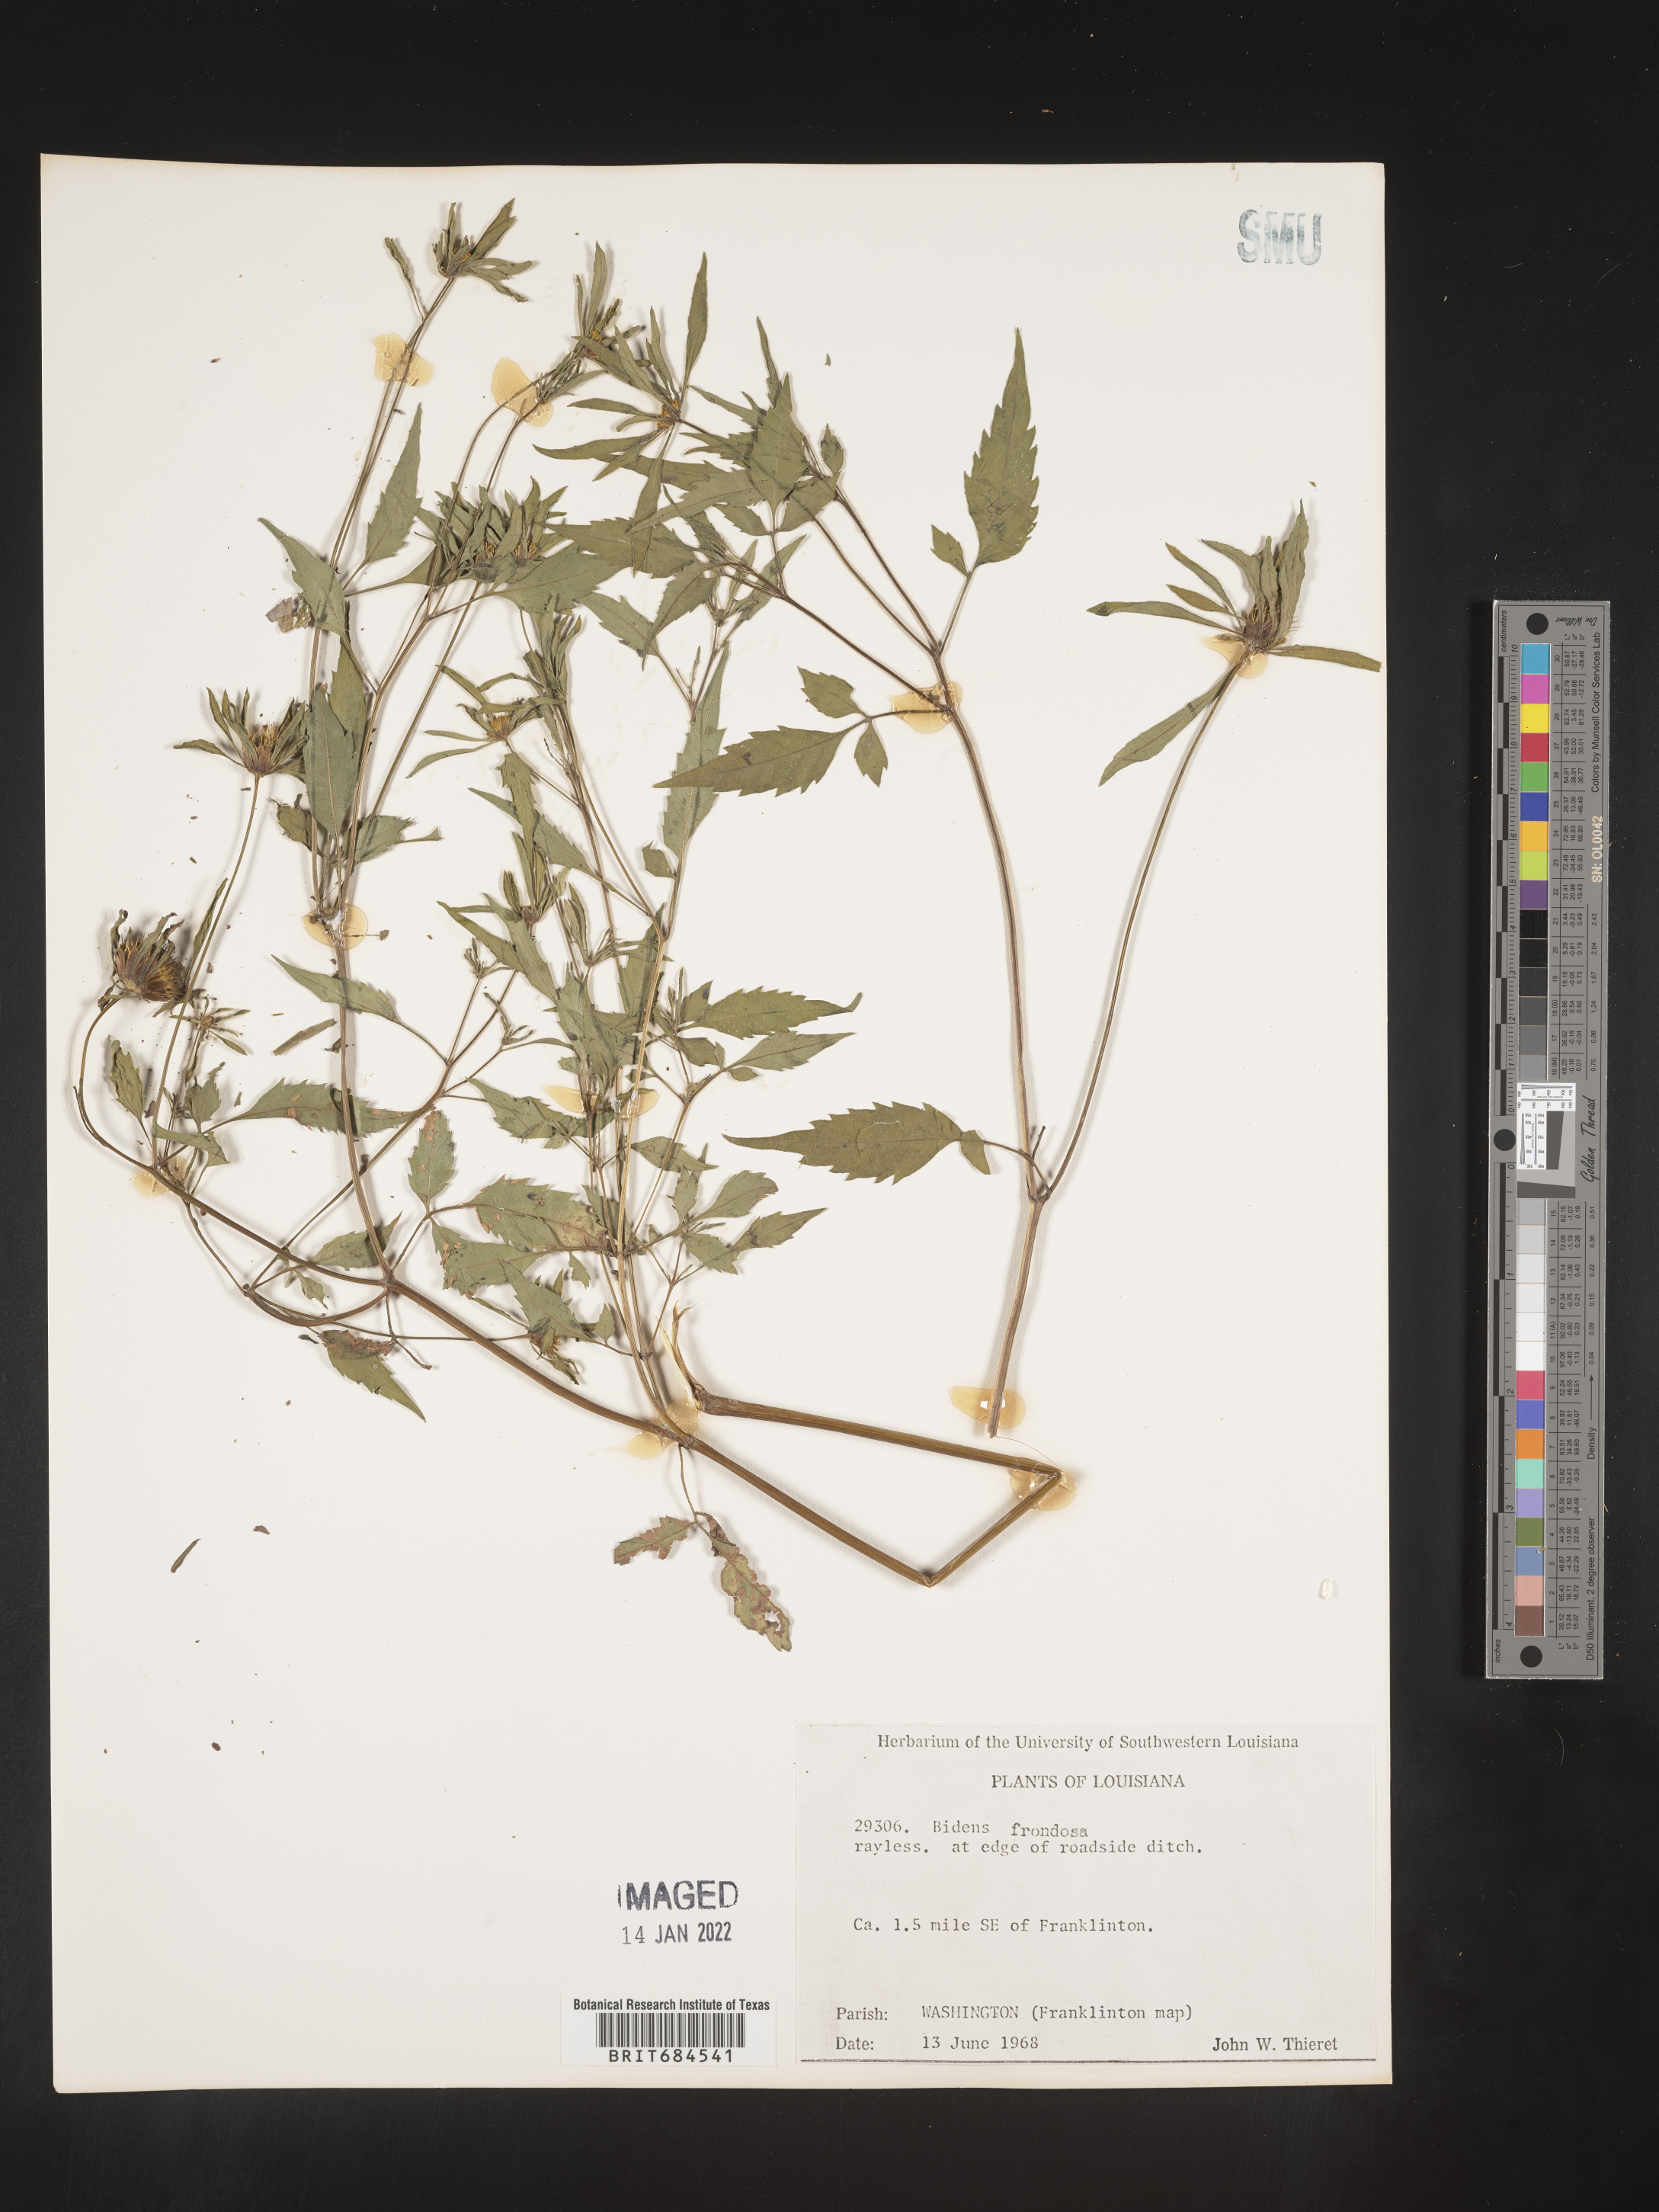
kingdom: Plantae
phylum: Tracheophyta
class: Magnoliopsida
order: Asterales
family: Asteraceae
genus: Bidens
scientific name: Bidens frondosa
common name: Beggarticks
